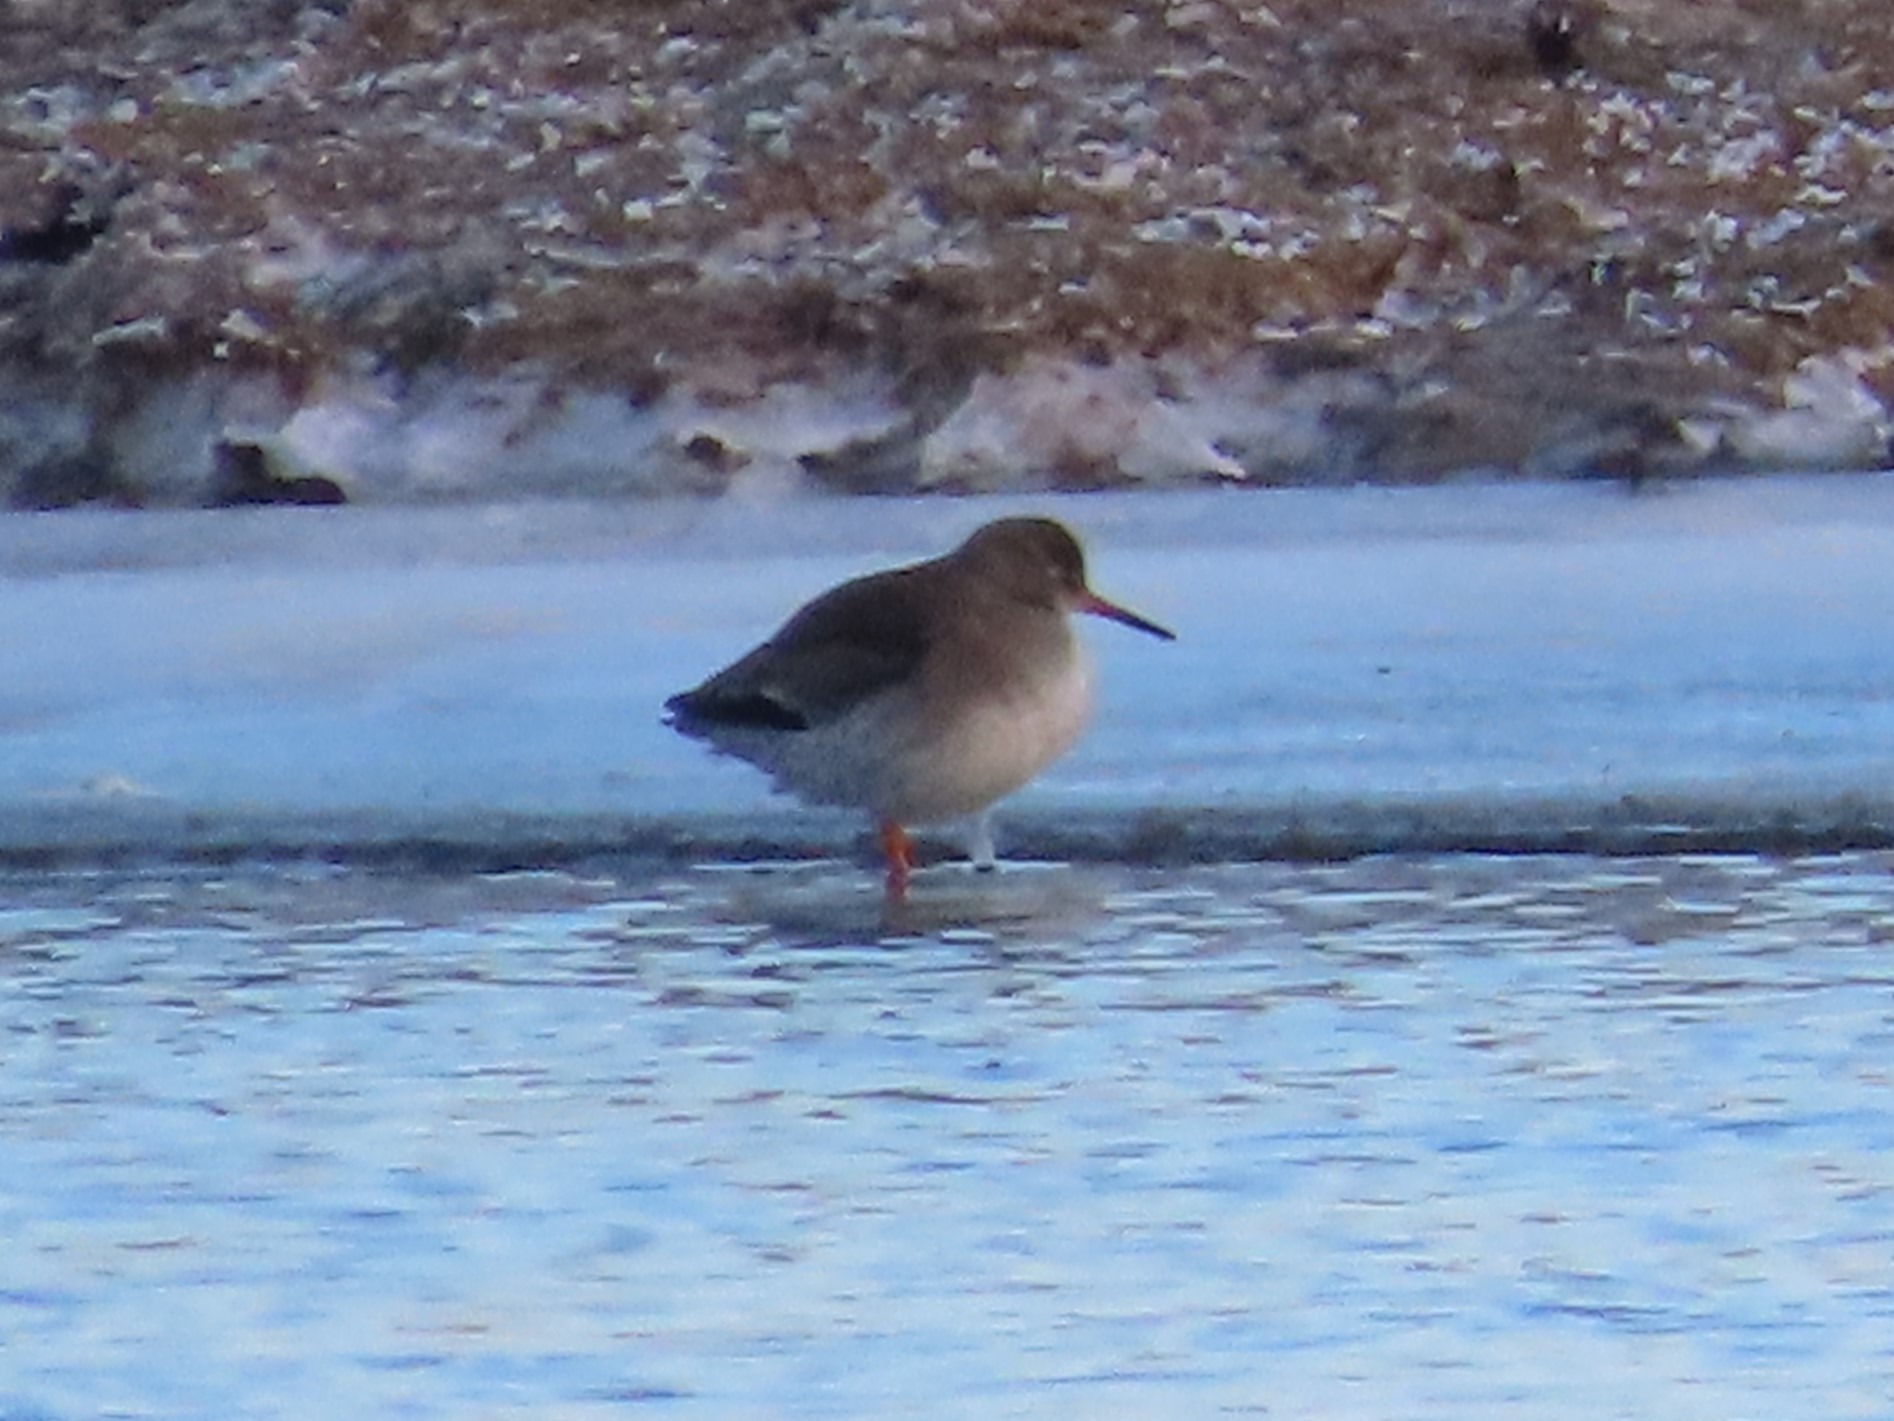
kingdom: Animalia
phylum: Chordata
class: Aves
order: Charadriiformes
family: Scolopacidae
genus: Tringa
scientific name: Tringa totanus
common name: Rødben
